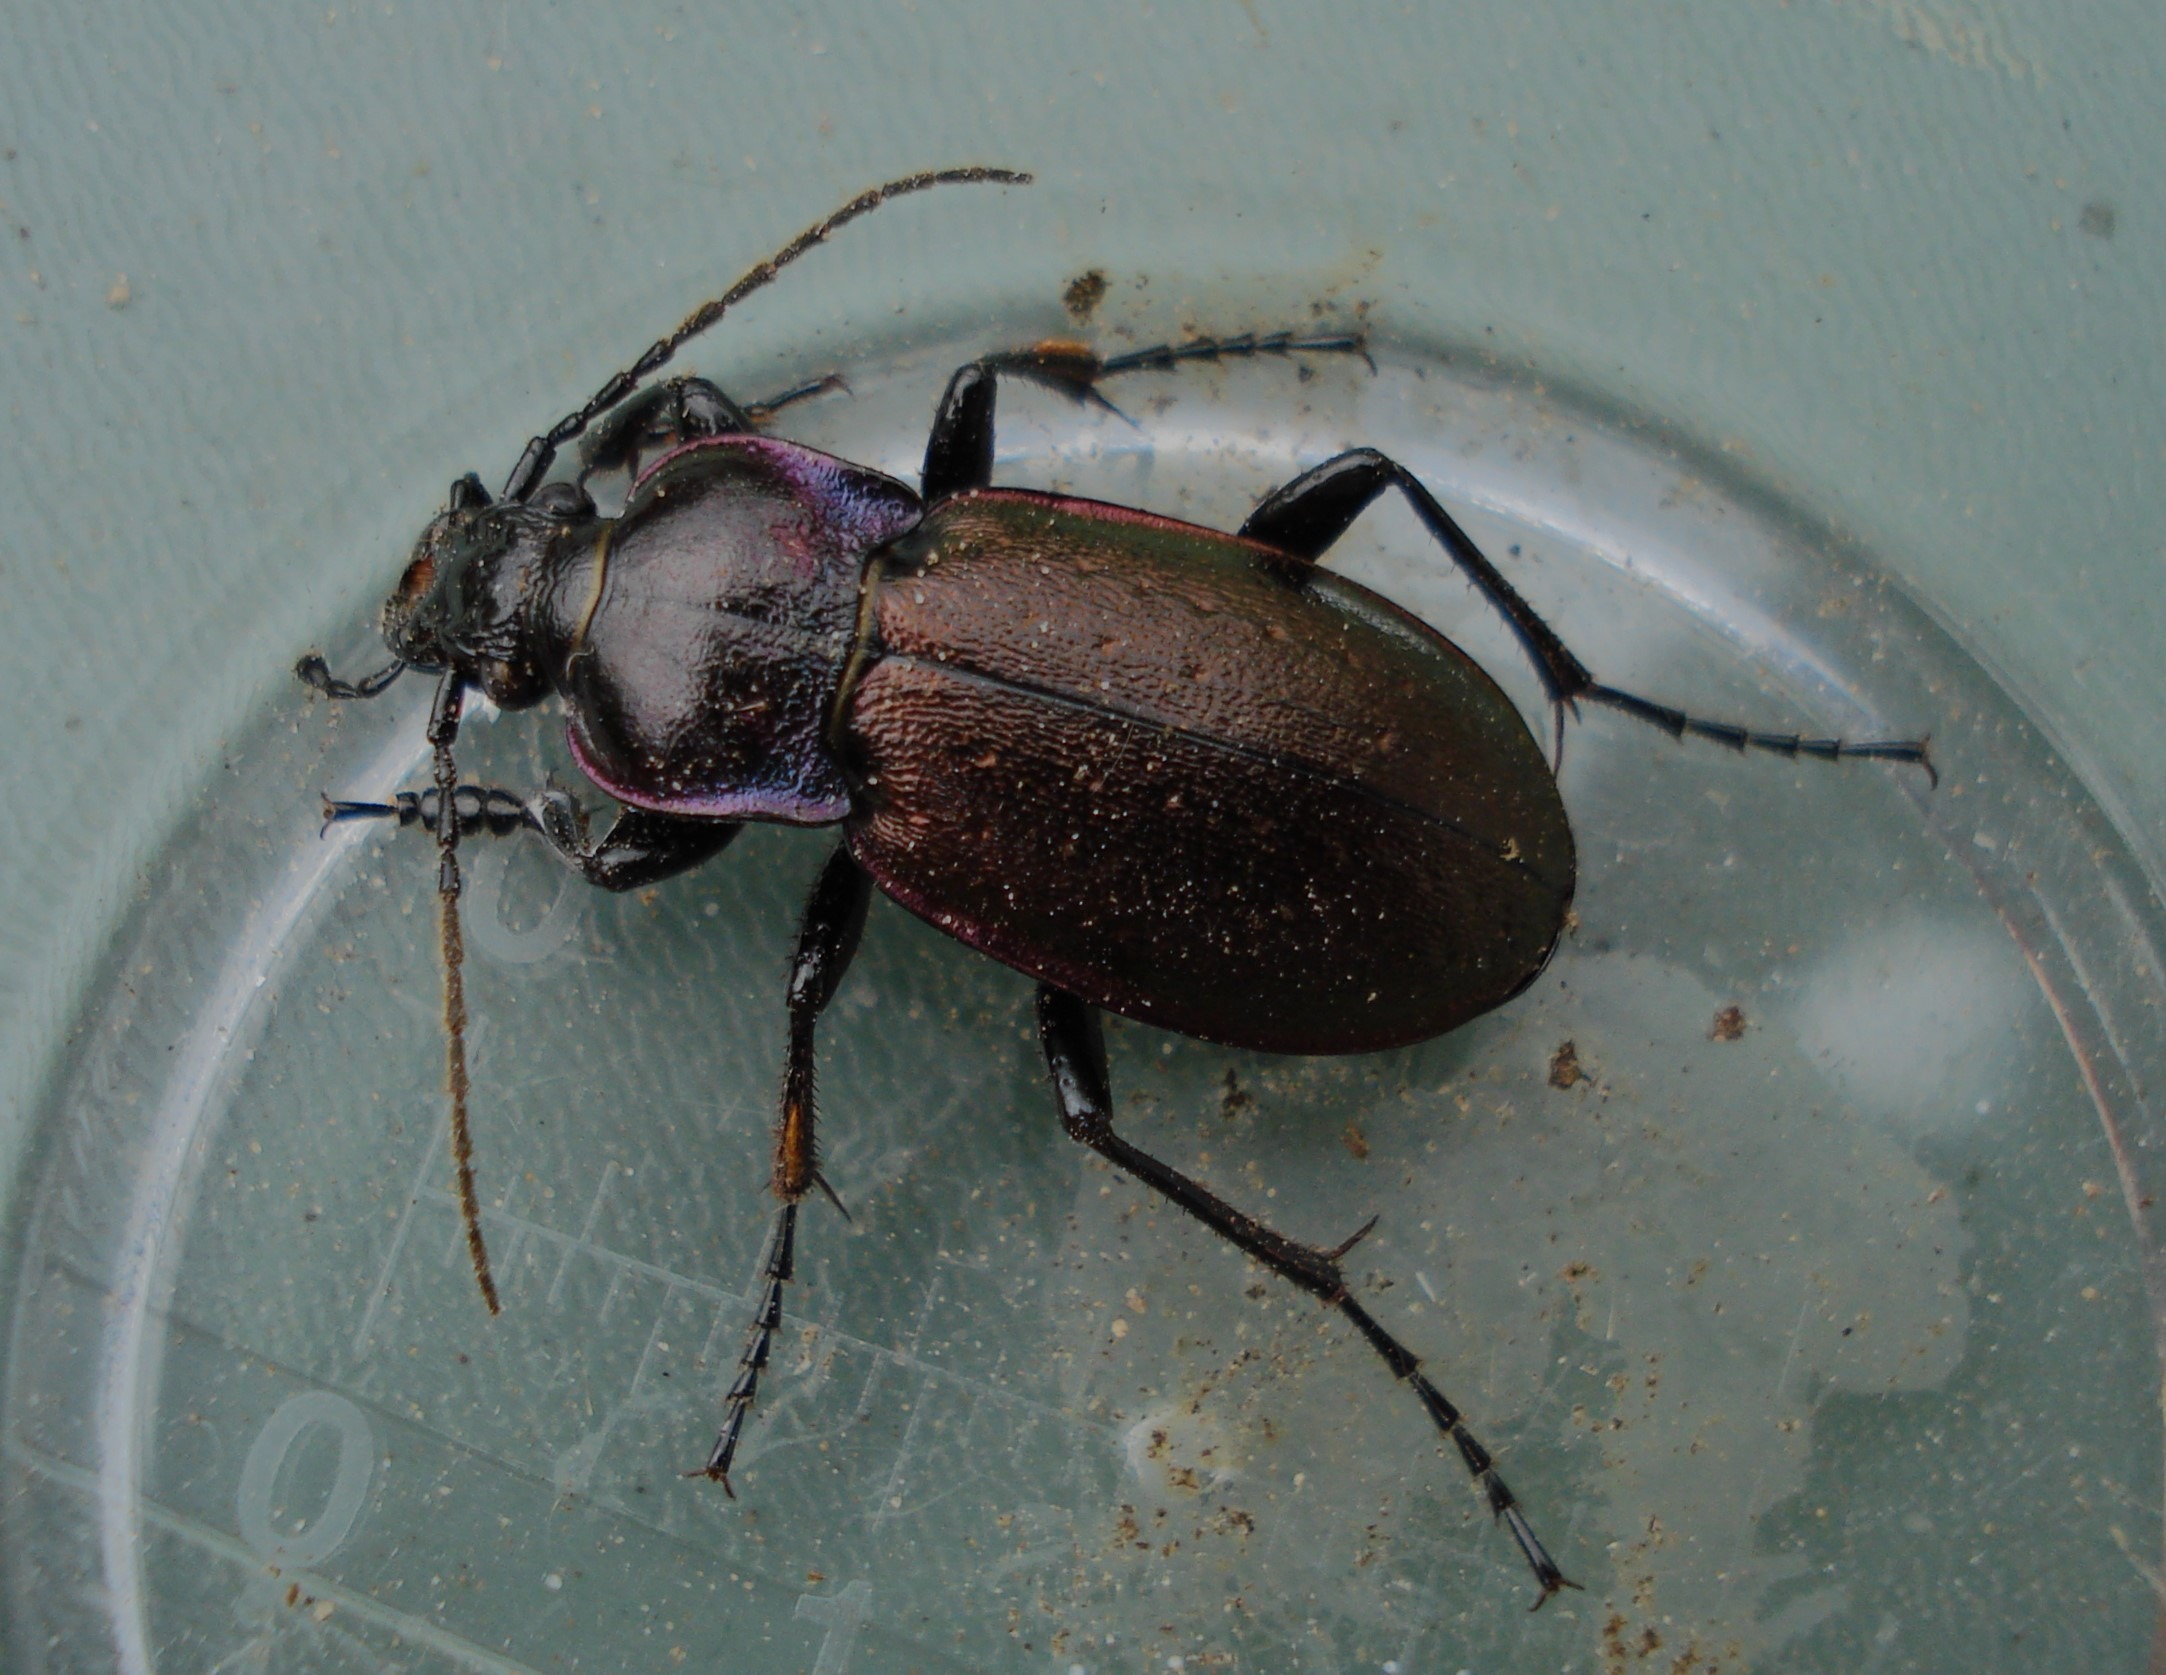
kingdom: Animalia
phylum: Arthropoda
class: Insecta
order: Coleoptera
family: Carabidae
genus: Carabus
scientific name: Carabus nemoralis
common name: Kratløber
